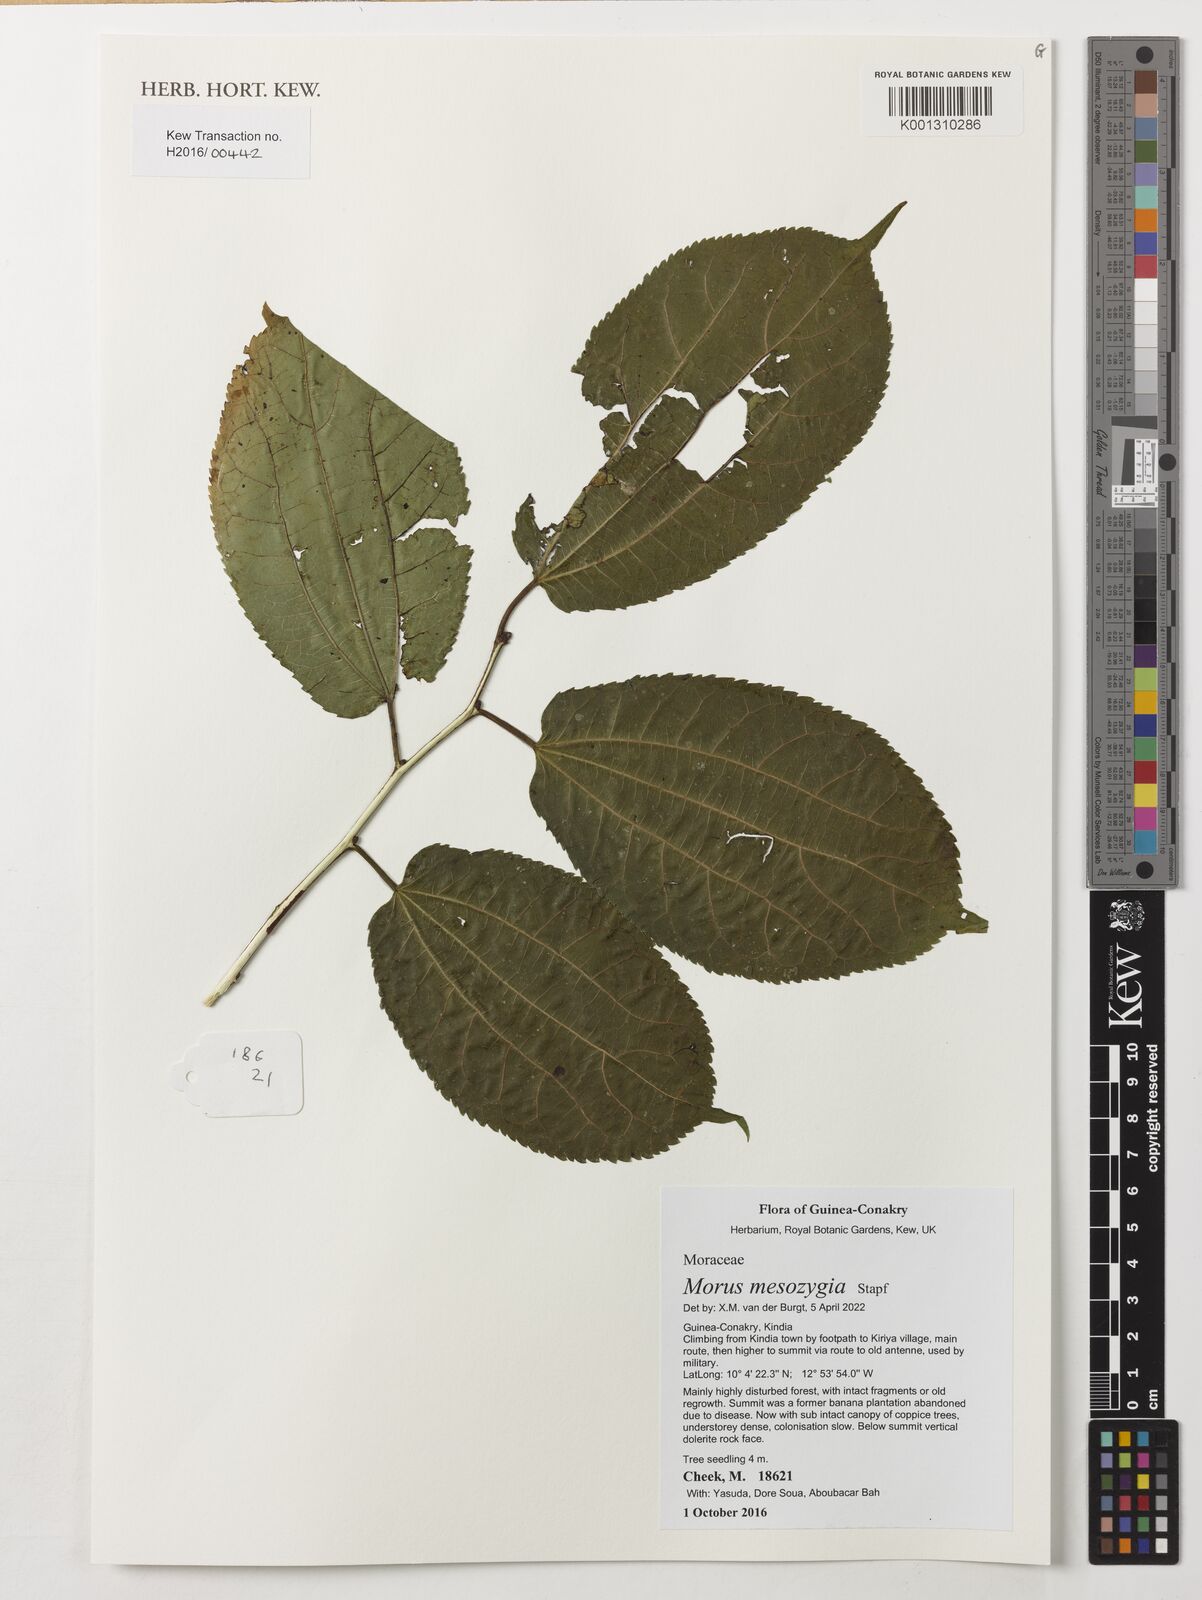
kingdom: Plantae
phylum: Tracheophyta
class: Magnoliopsida
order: Rosales
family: Moraceae
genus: Afromorus
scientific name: Afromorus mesozygia
